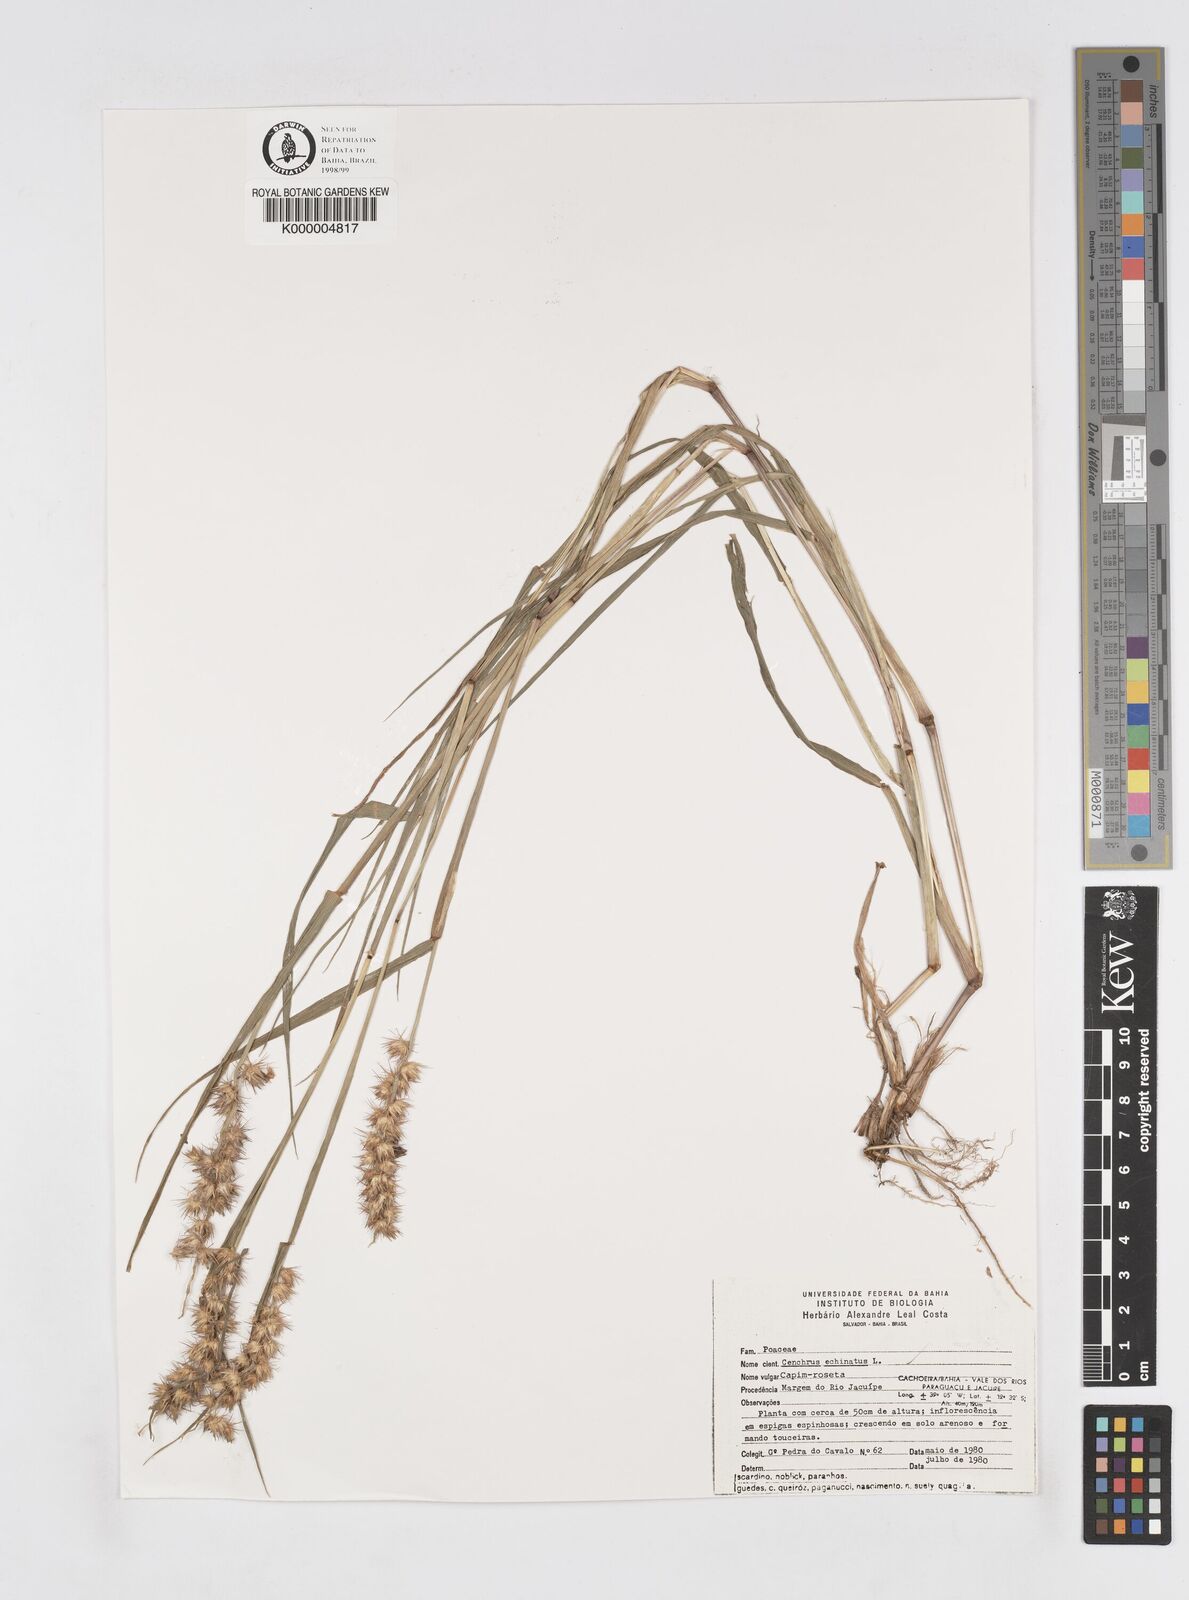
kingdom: Plantae
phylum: Tracheophyta
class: Liliopsida
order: Poales
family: Poaceae
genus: Cenchrus
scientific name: Cenchrus echinatus
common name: Southern sandbur
